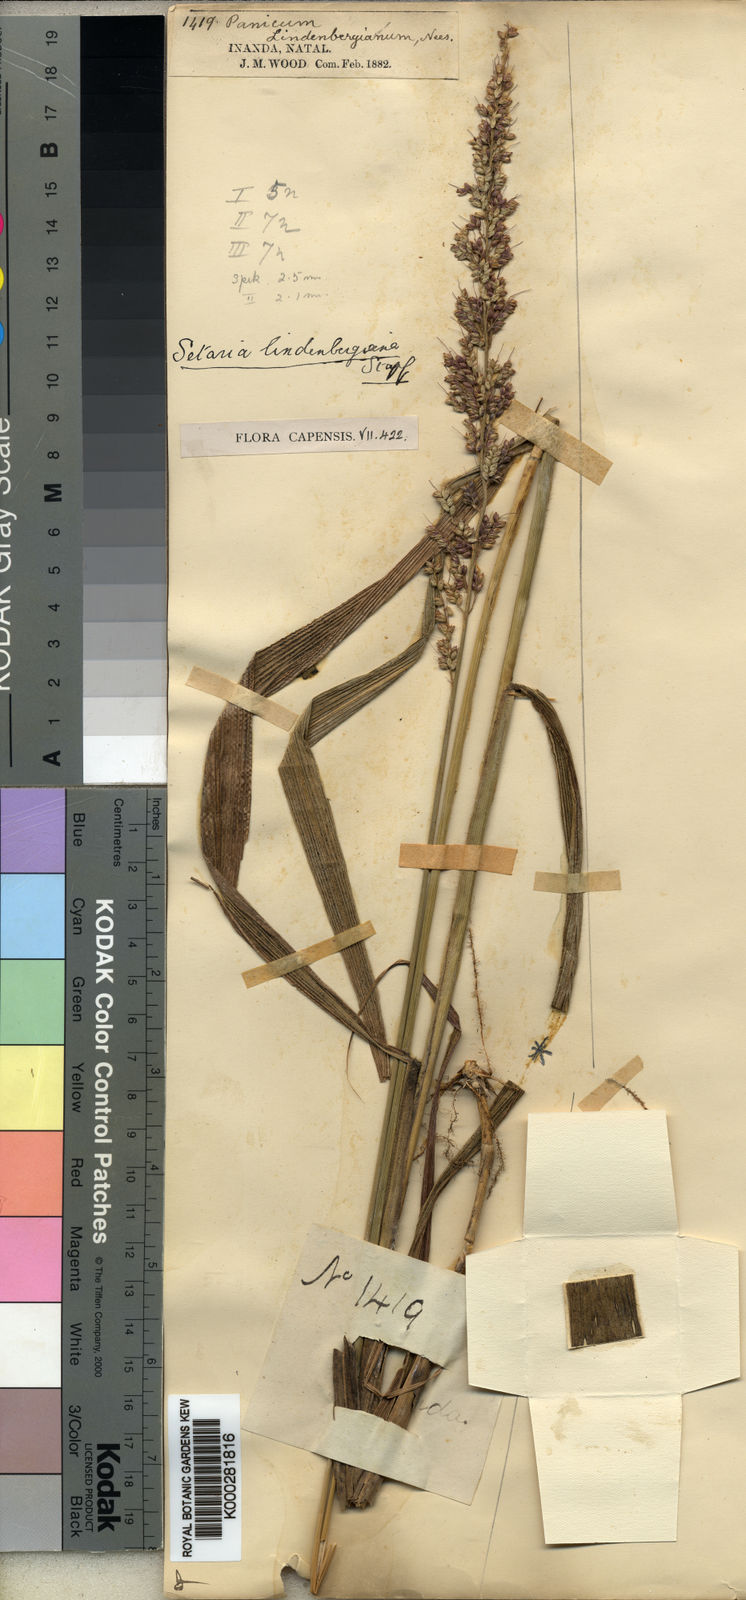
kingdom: Plantae
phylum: Tracheophyta
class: Liliopsida
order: Poales
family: Poaceae
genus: Setaria
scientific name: Setaria lindenbergiana
